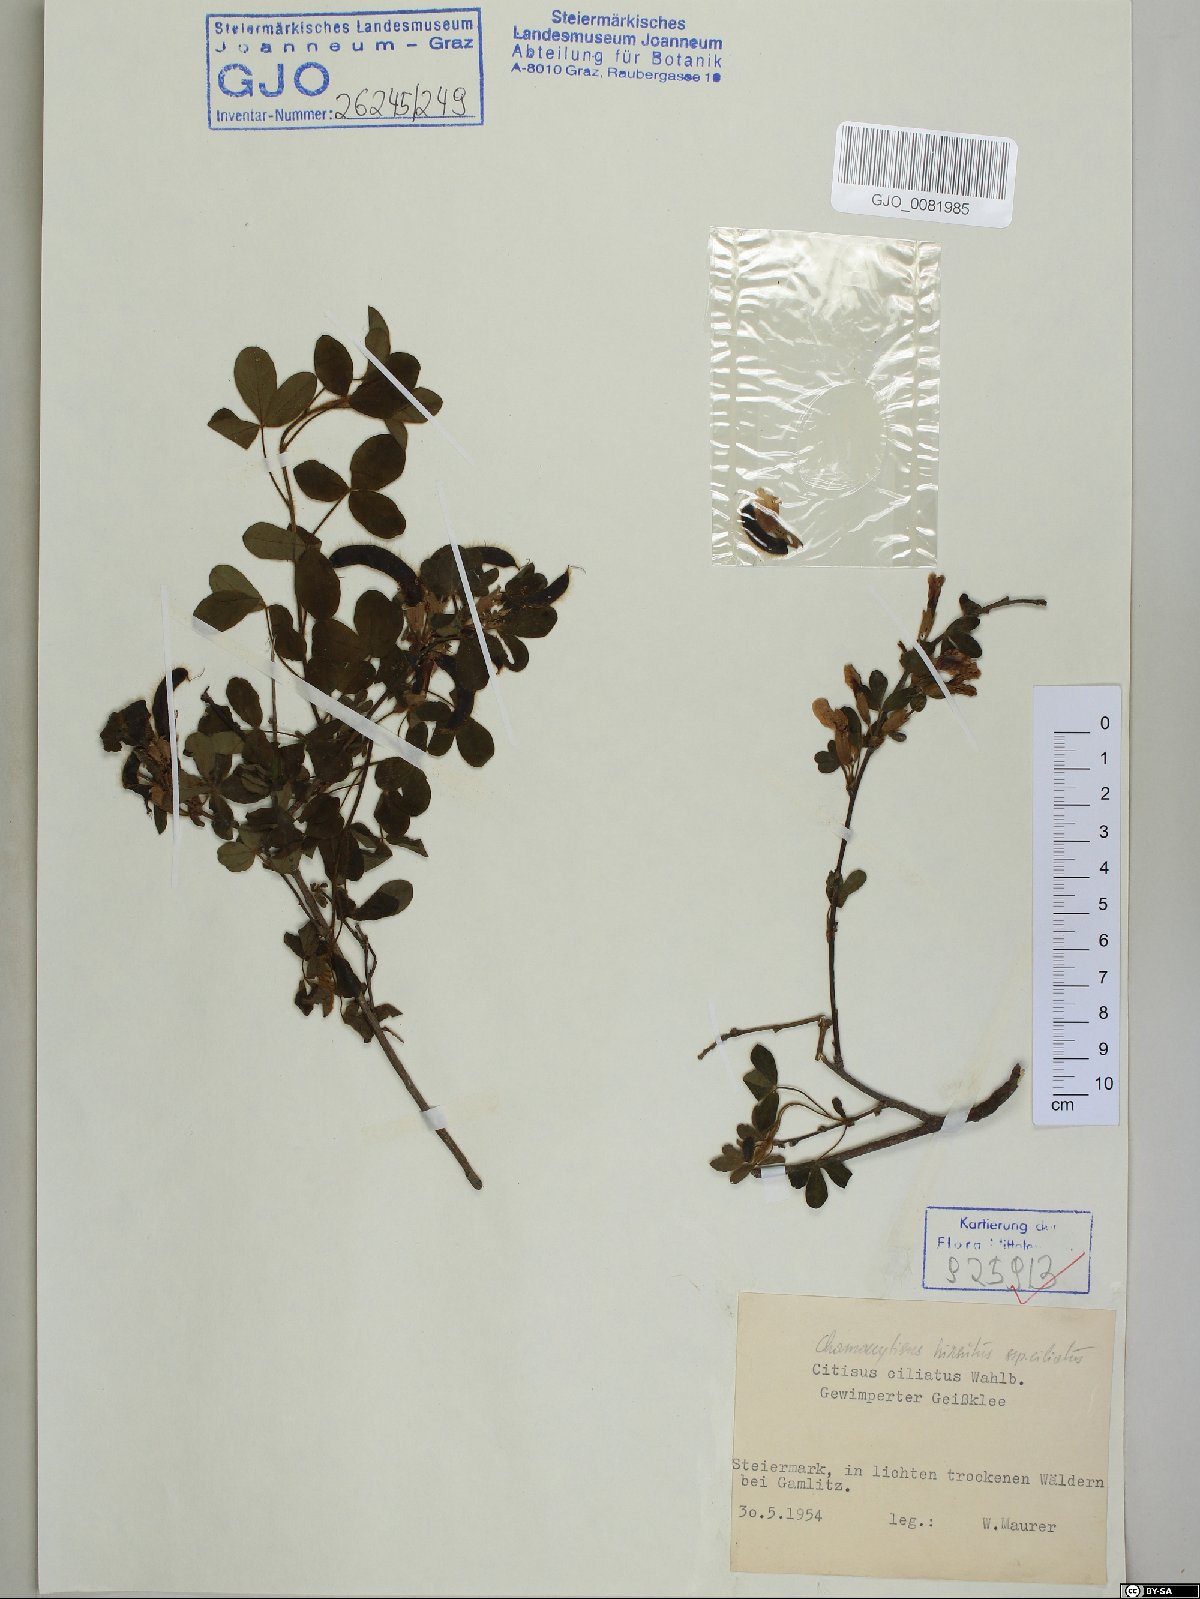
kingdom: Plantae
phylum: Tracheophyta
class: Magnoliopsida
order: Fabales
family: Fabaceae
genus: Chamaecytisus
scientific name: Chamaecytisus hirsutus
